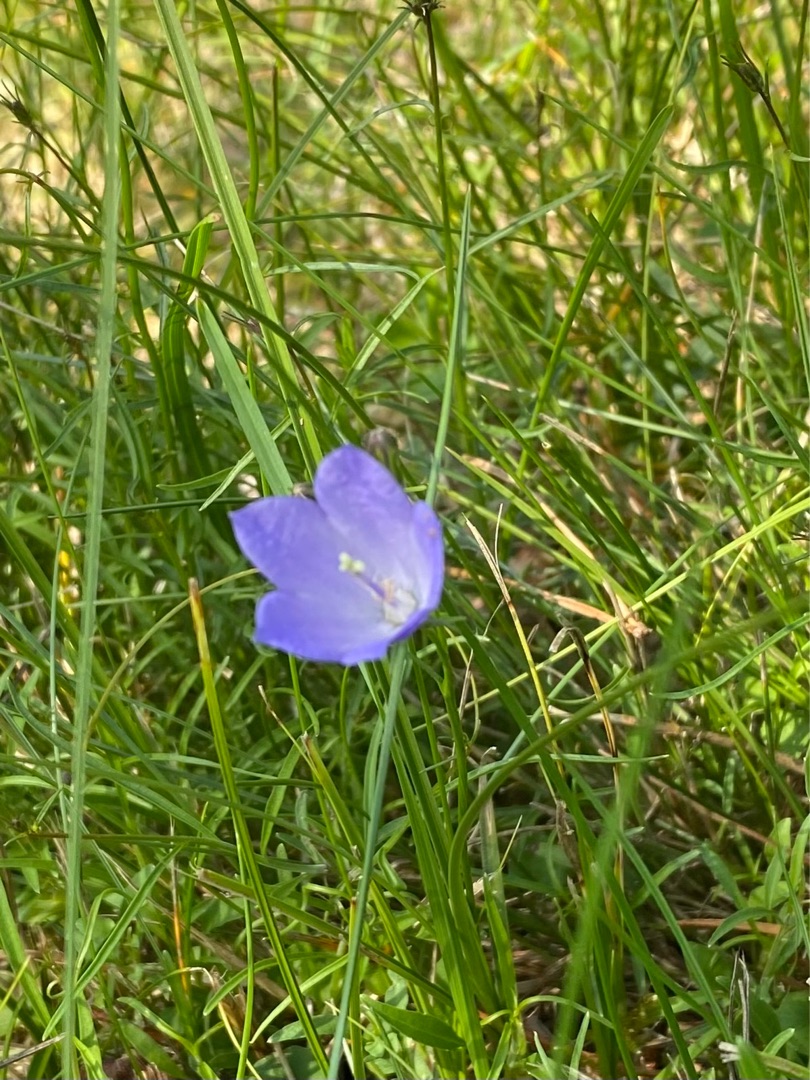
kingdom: Plantae
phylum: Tracheophyta
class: Magnoliopsida
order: Asterales
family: Campanulaceae
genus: Campanula
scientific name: Campanula rotundifolia
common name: Liden klokke
